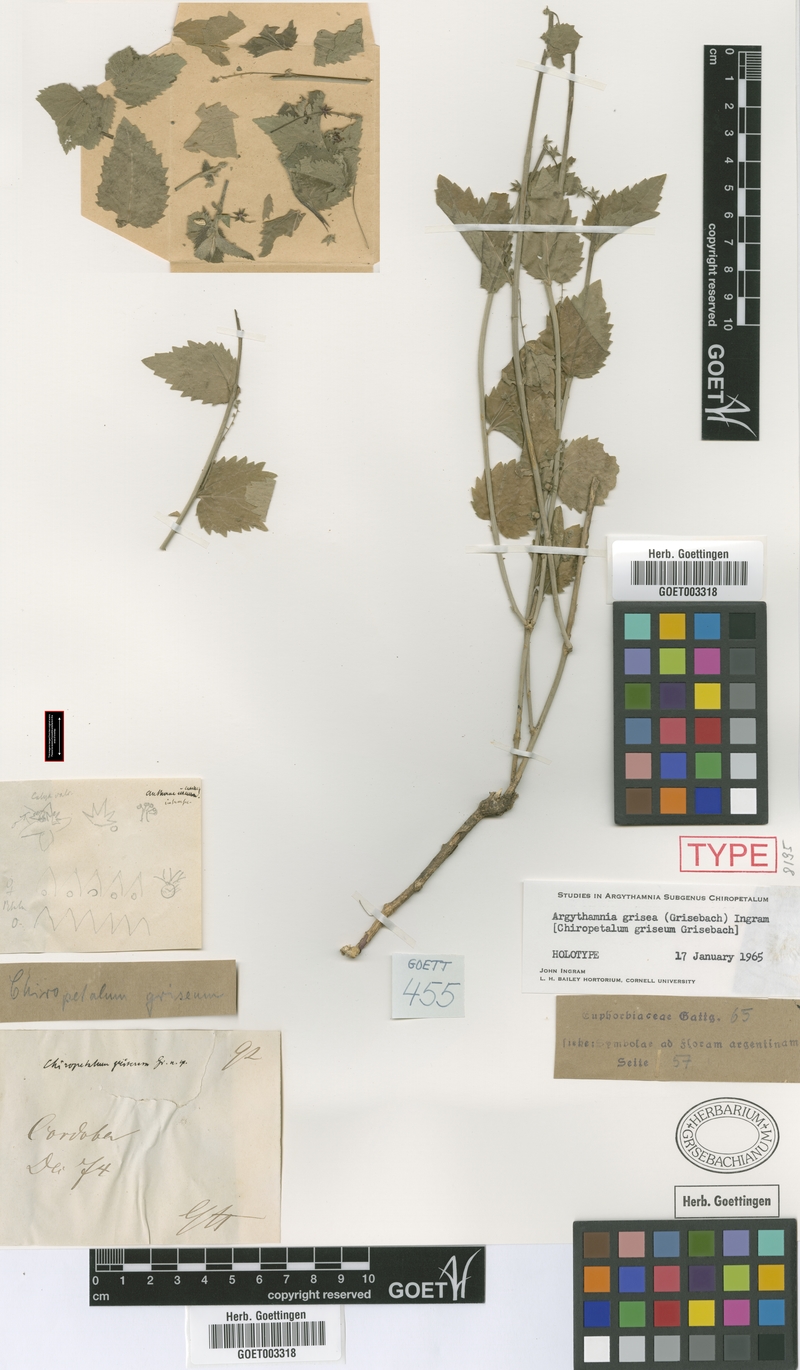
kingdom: Plantae
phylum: Tracheophyta
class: Magnoliopsida
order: Malpighiales
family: Euphorbiaceae
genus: Chiropetalum
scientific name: Chiropetalum griseum
